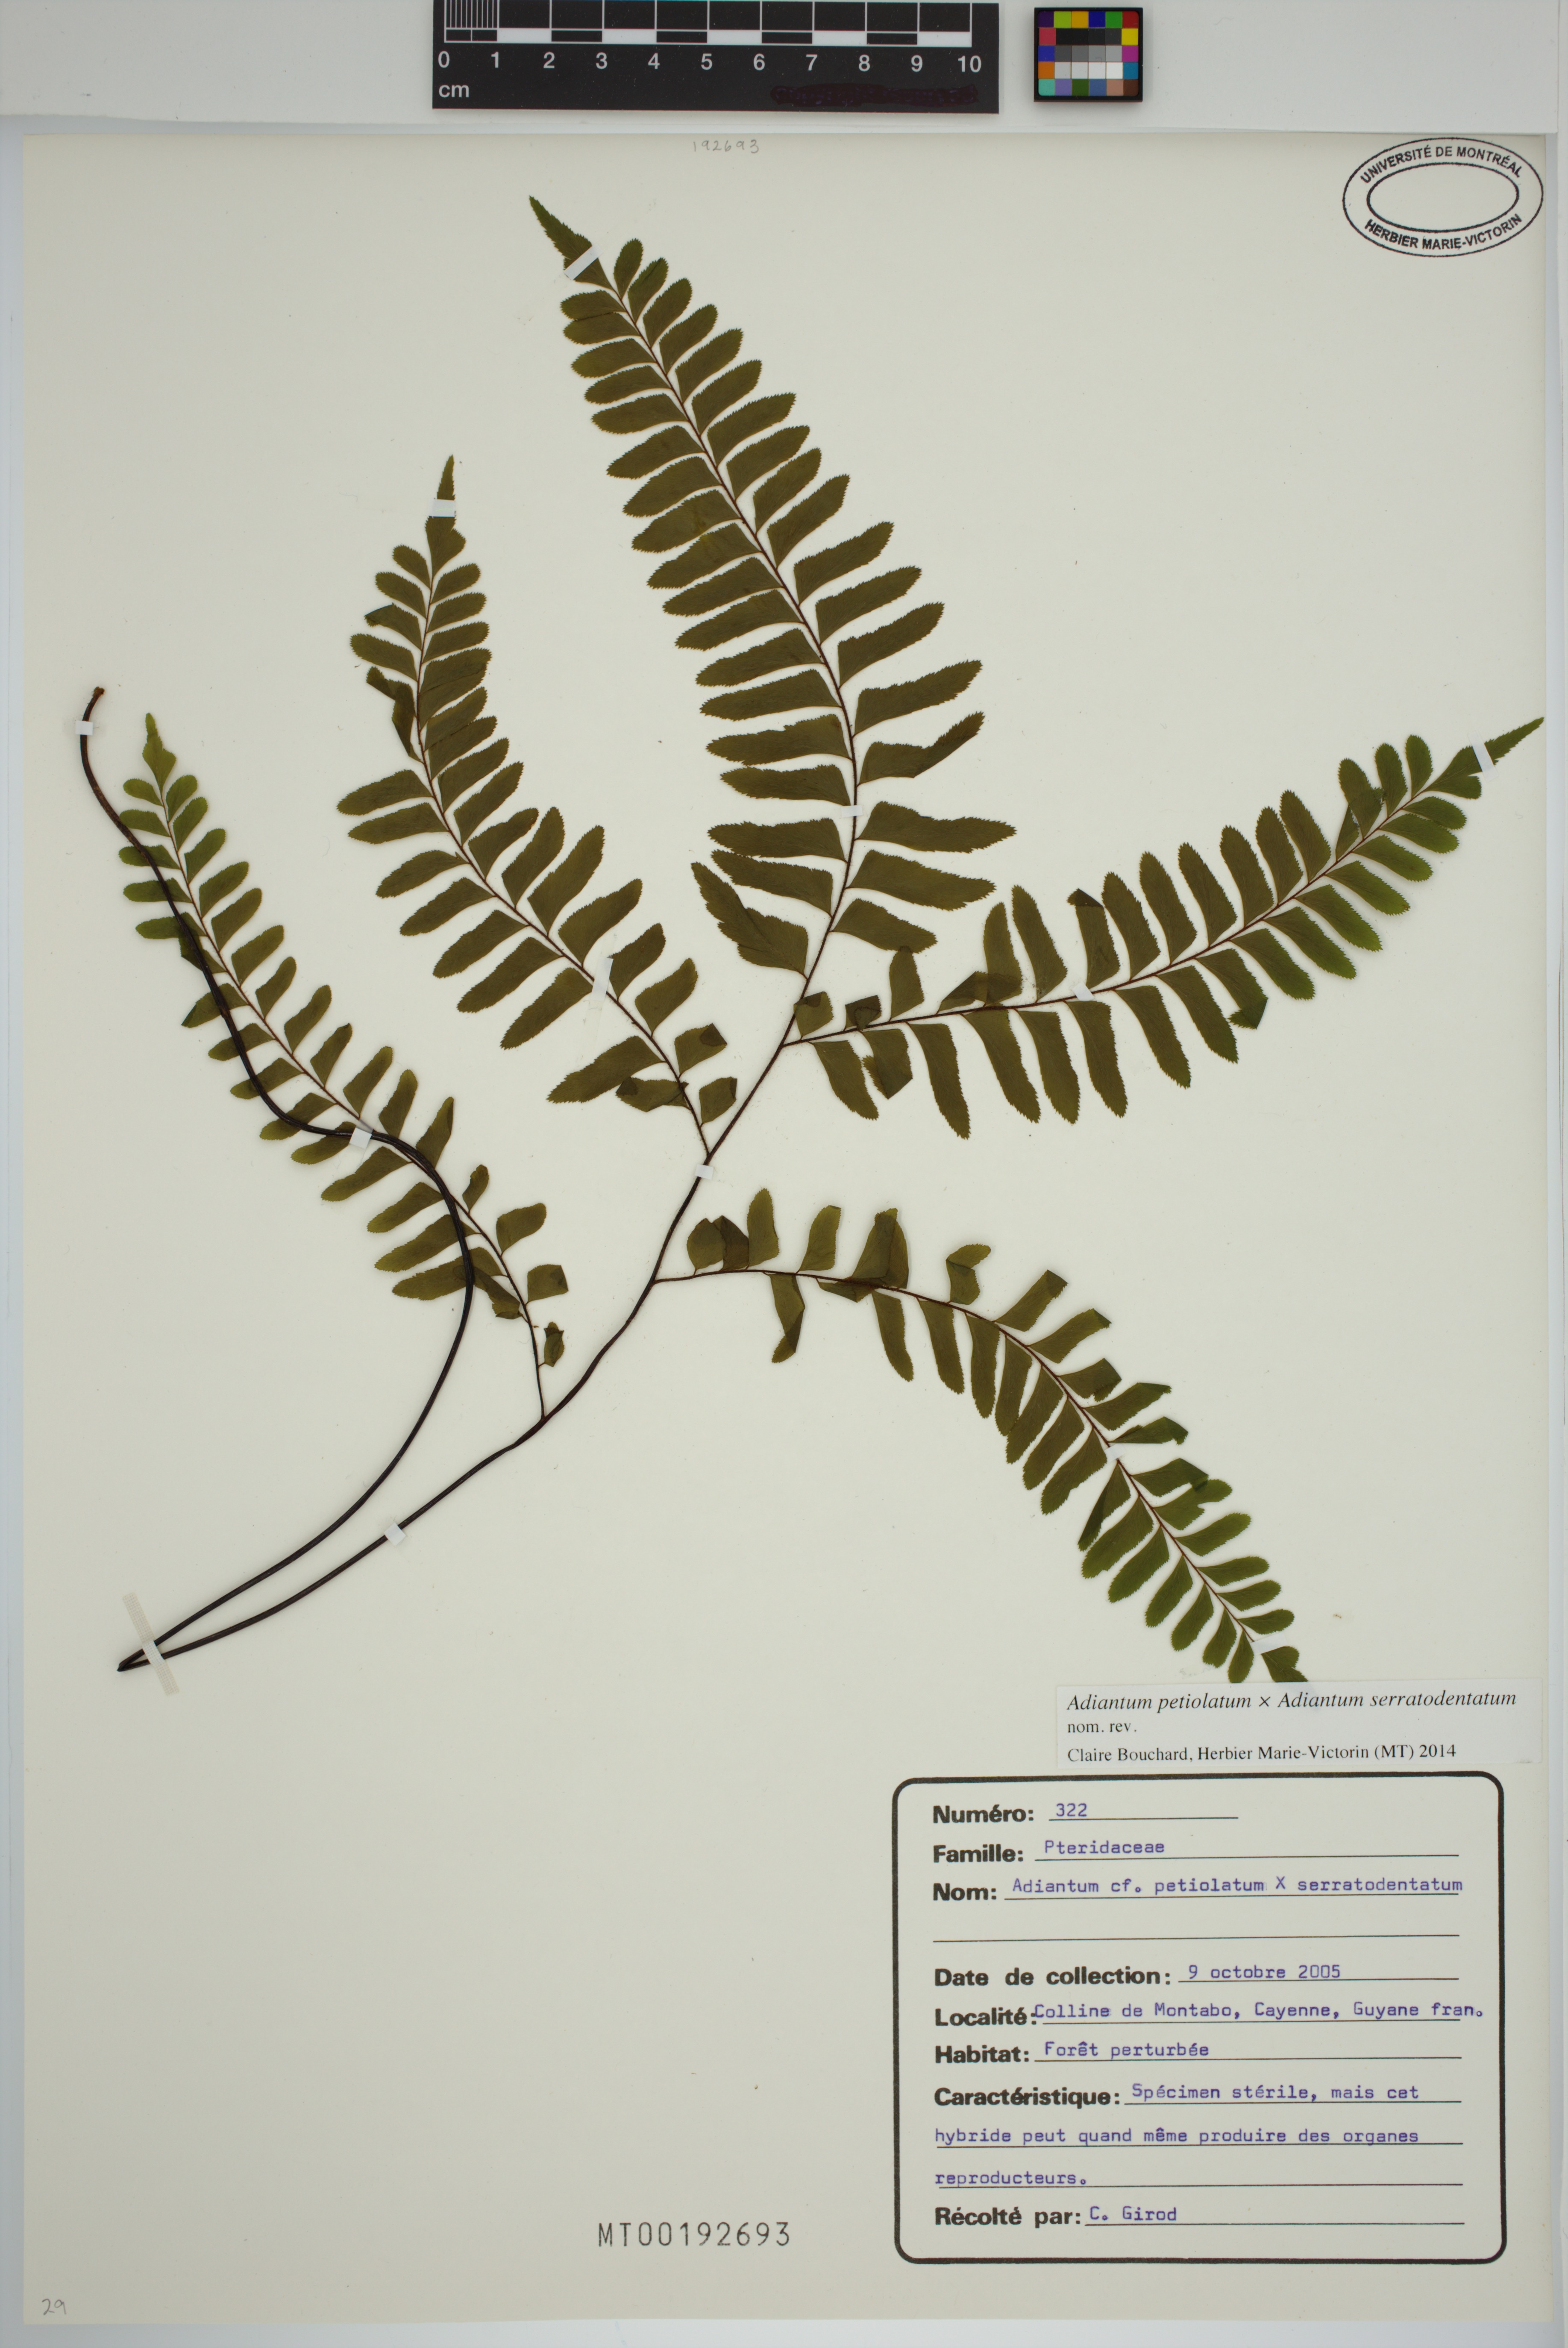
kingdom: Plantae
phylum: Tracheophyta
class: Polypodiopsida
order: Polypodiales
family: Pteridaceae
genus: Adiantum
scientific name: Adiantum petiolatum
